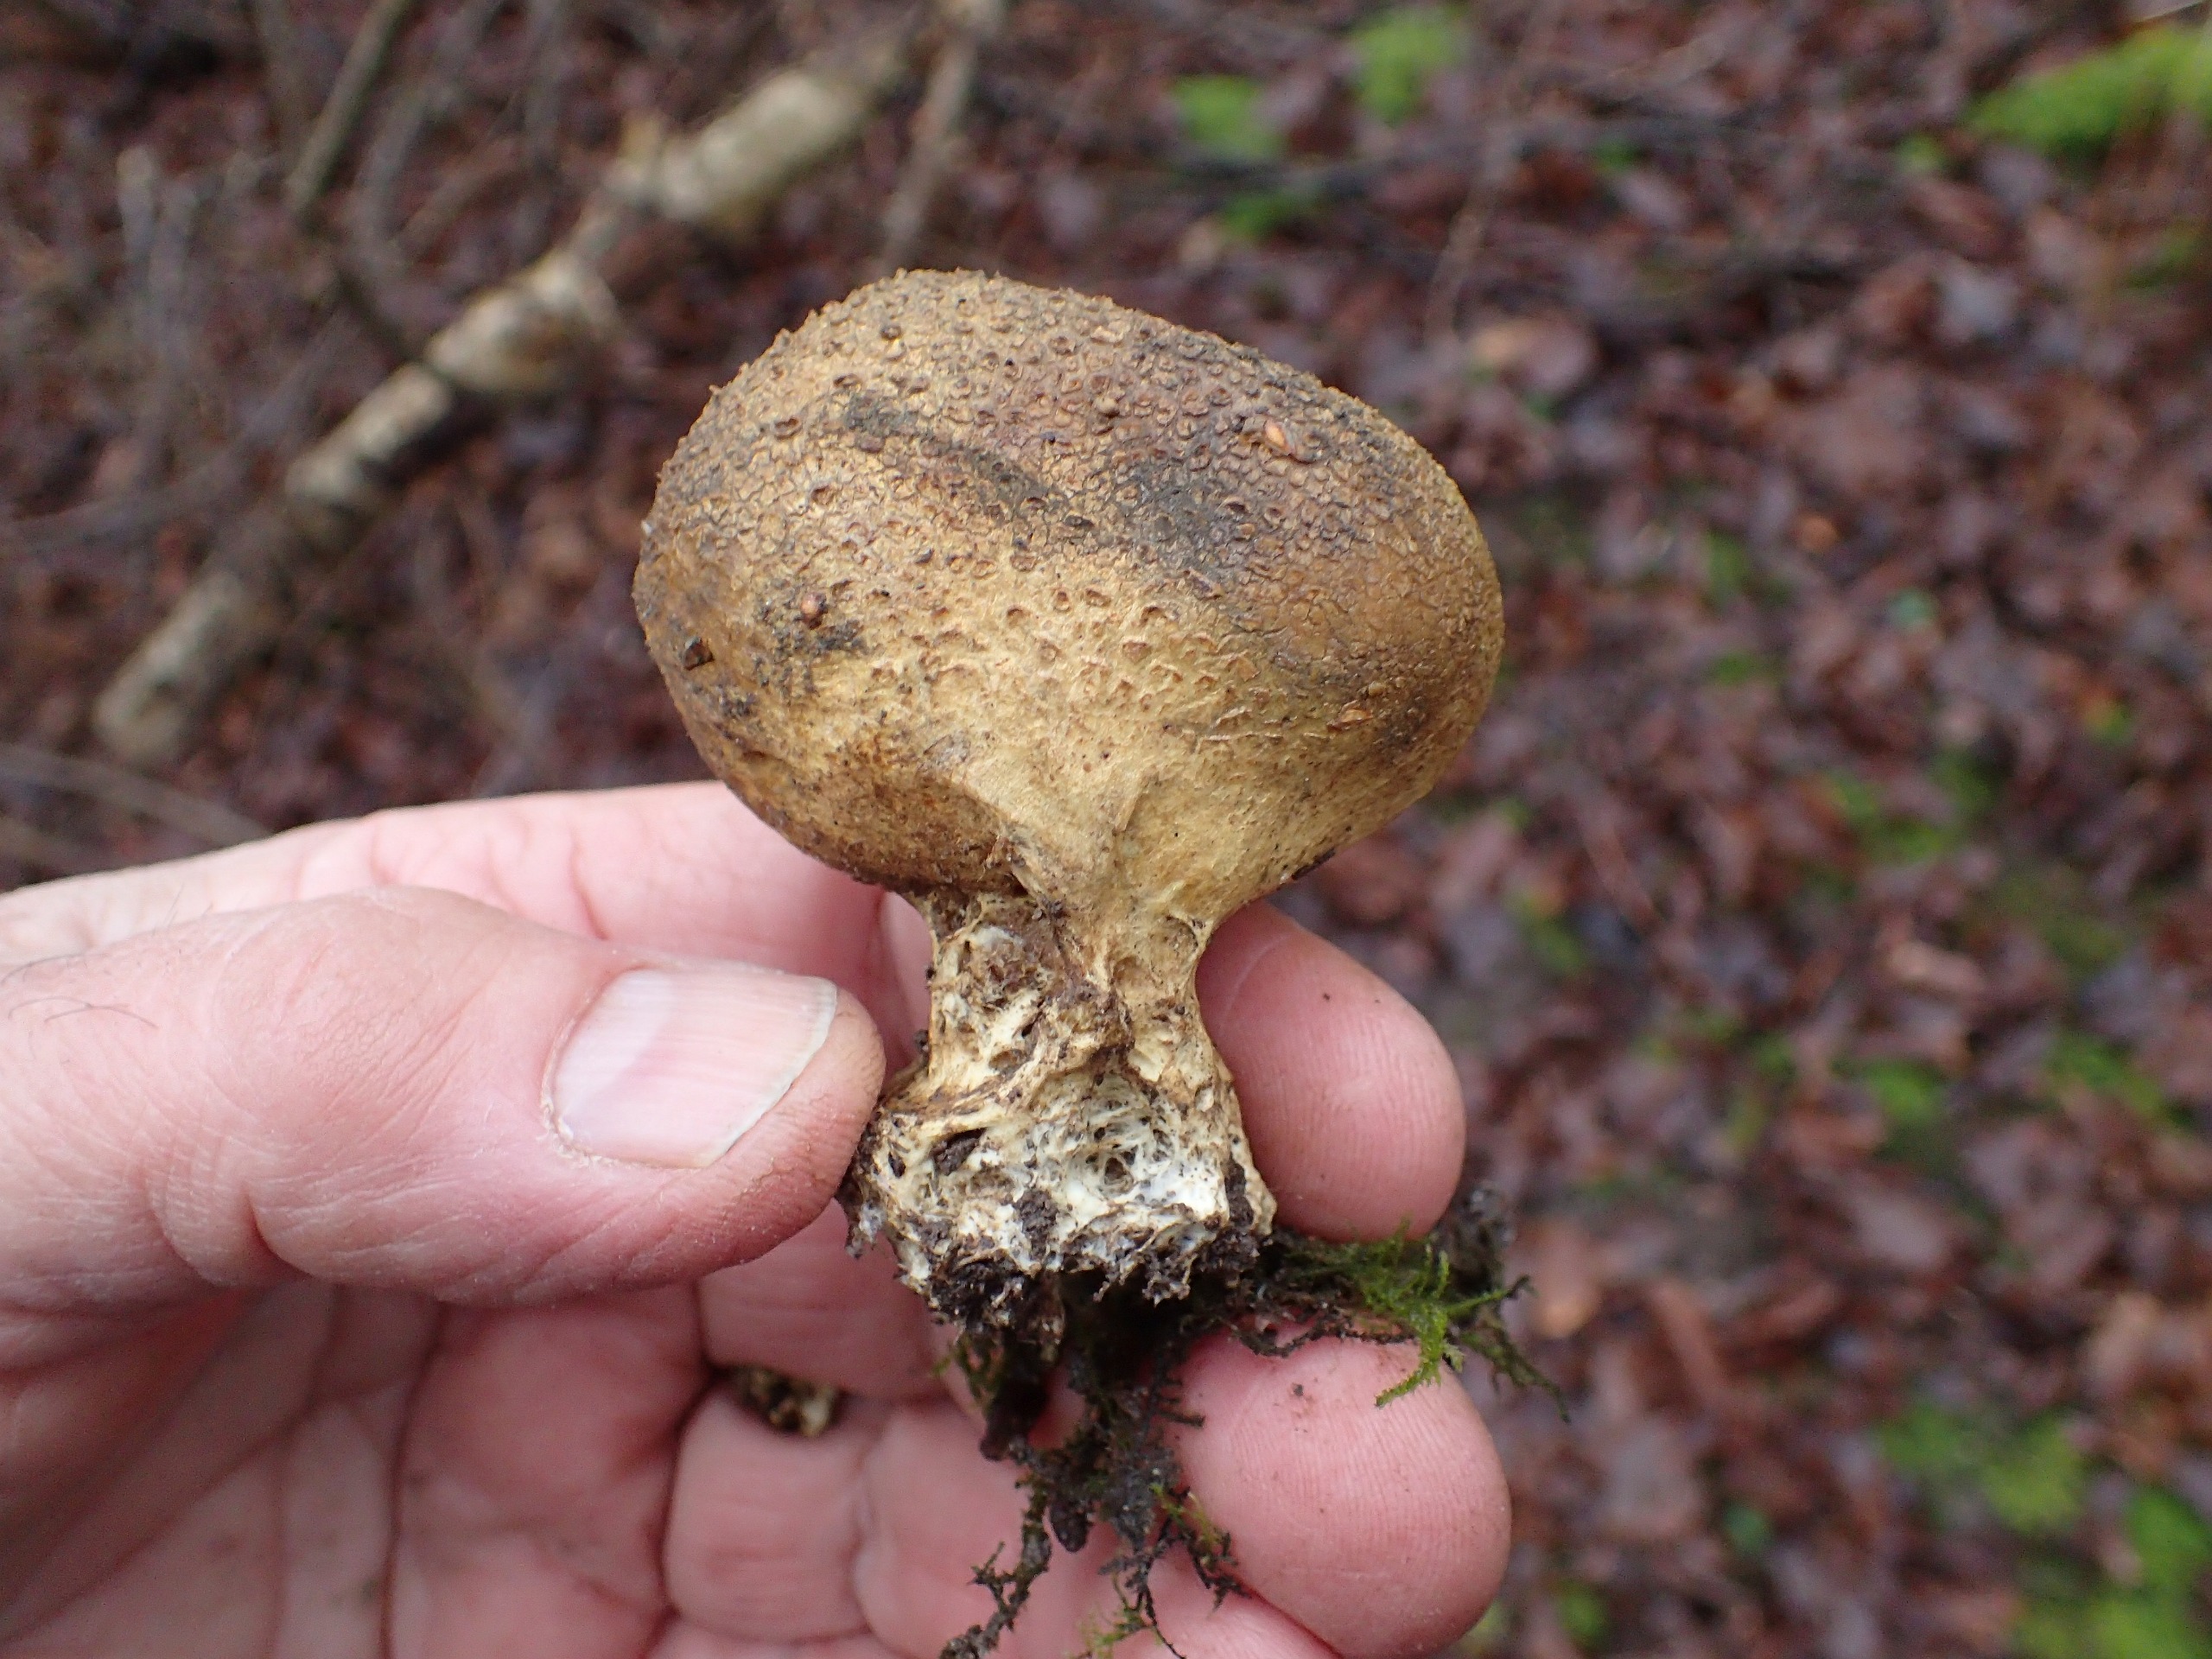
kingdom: Fungi
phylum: Basidiomycota
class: Agaricomycetes
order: Boletales
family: Sclerodermataceae
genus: Scleroderma
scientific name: Scleroderma verrucosum
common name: Stilket bruskbold
